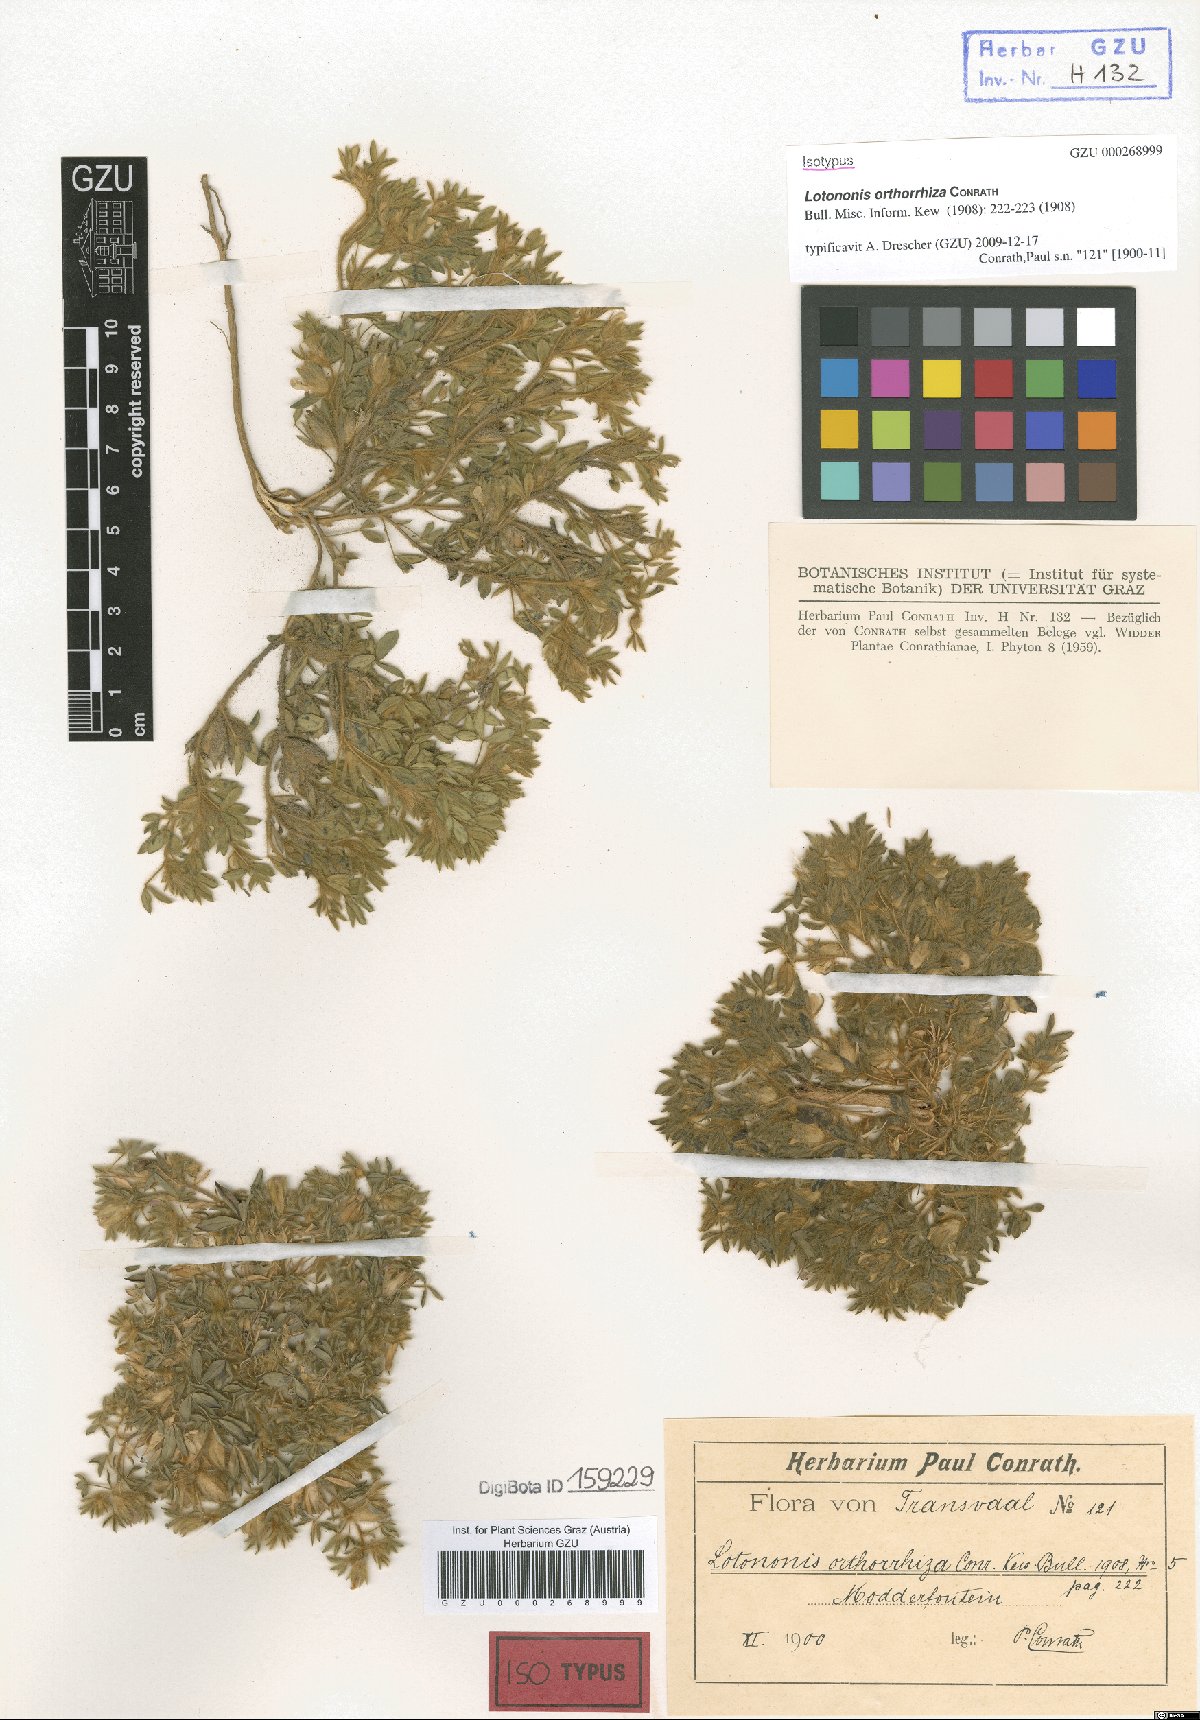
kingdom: Plantae
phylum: Tracheophyta
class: Magnoliopsida
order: Fabales
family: Fabaceae
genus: Leobordea
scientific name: Leobordea divaricata
